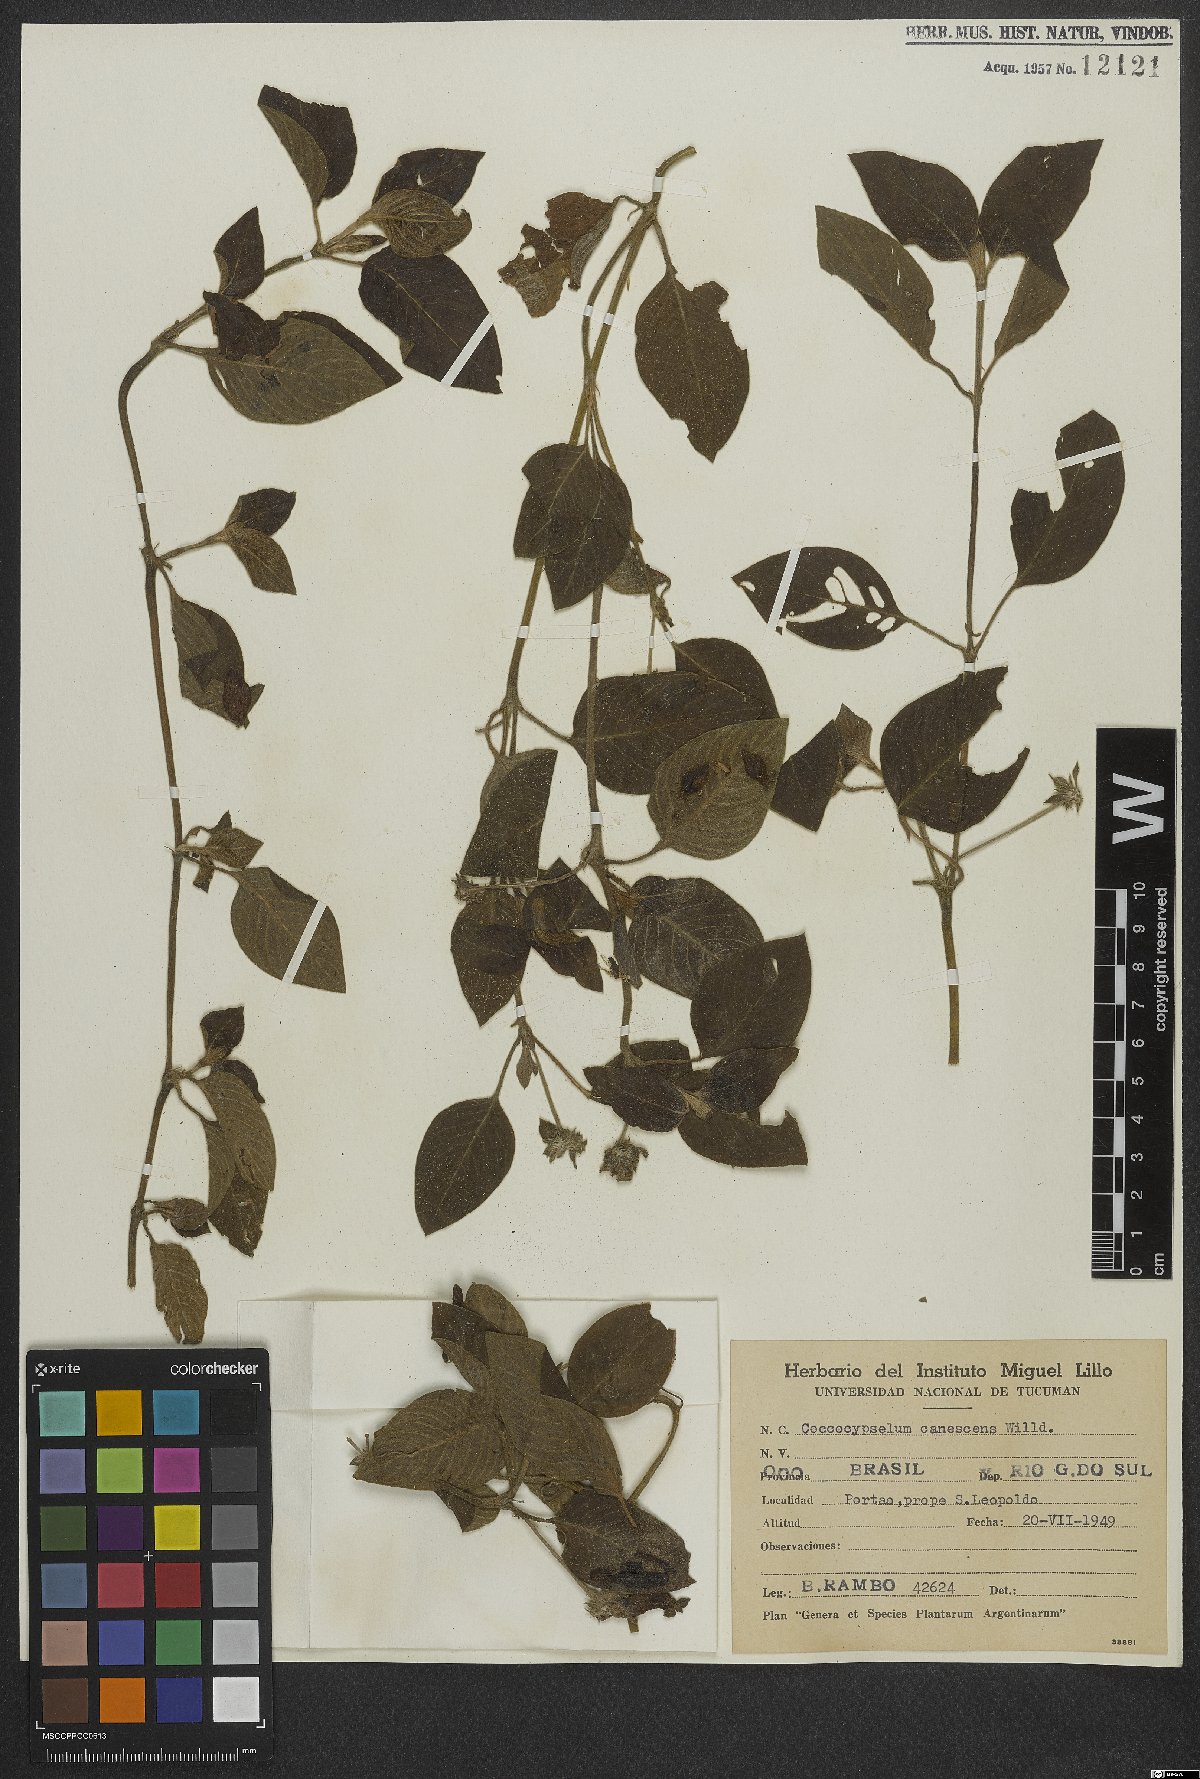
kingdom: Plantae
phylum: Tracheophyta
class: Magnoliopsida
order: Gentianales
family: Rubiaceae
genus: Coccocypselum
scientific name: Coccocypselum lanceolatum
